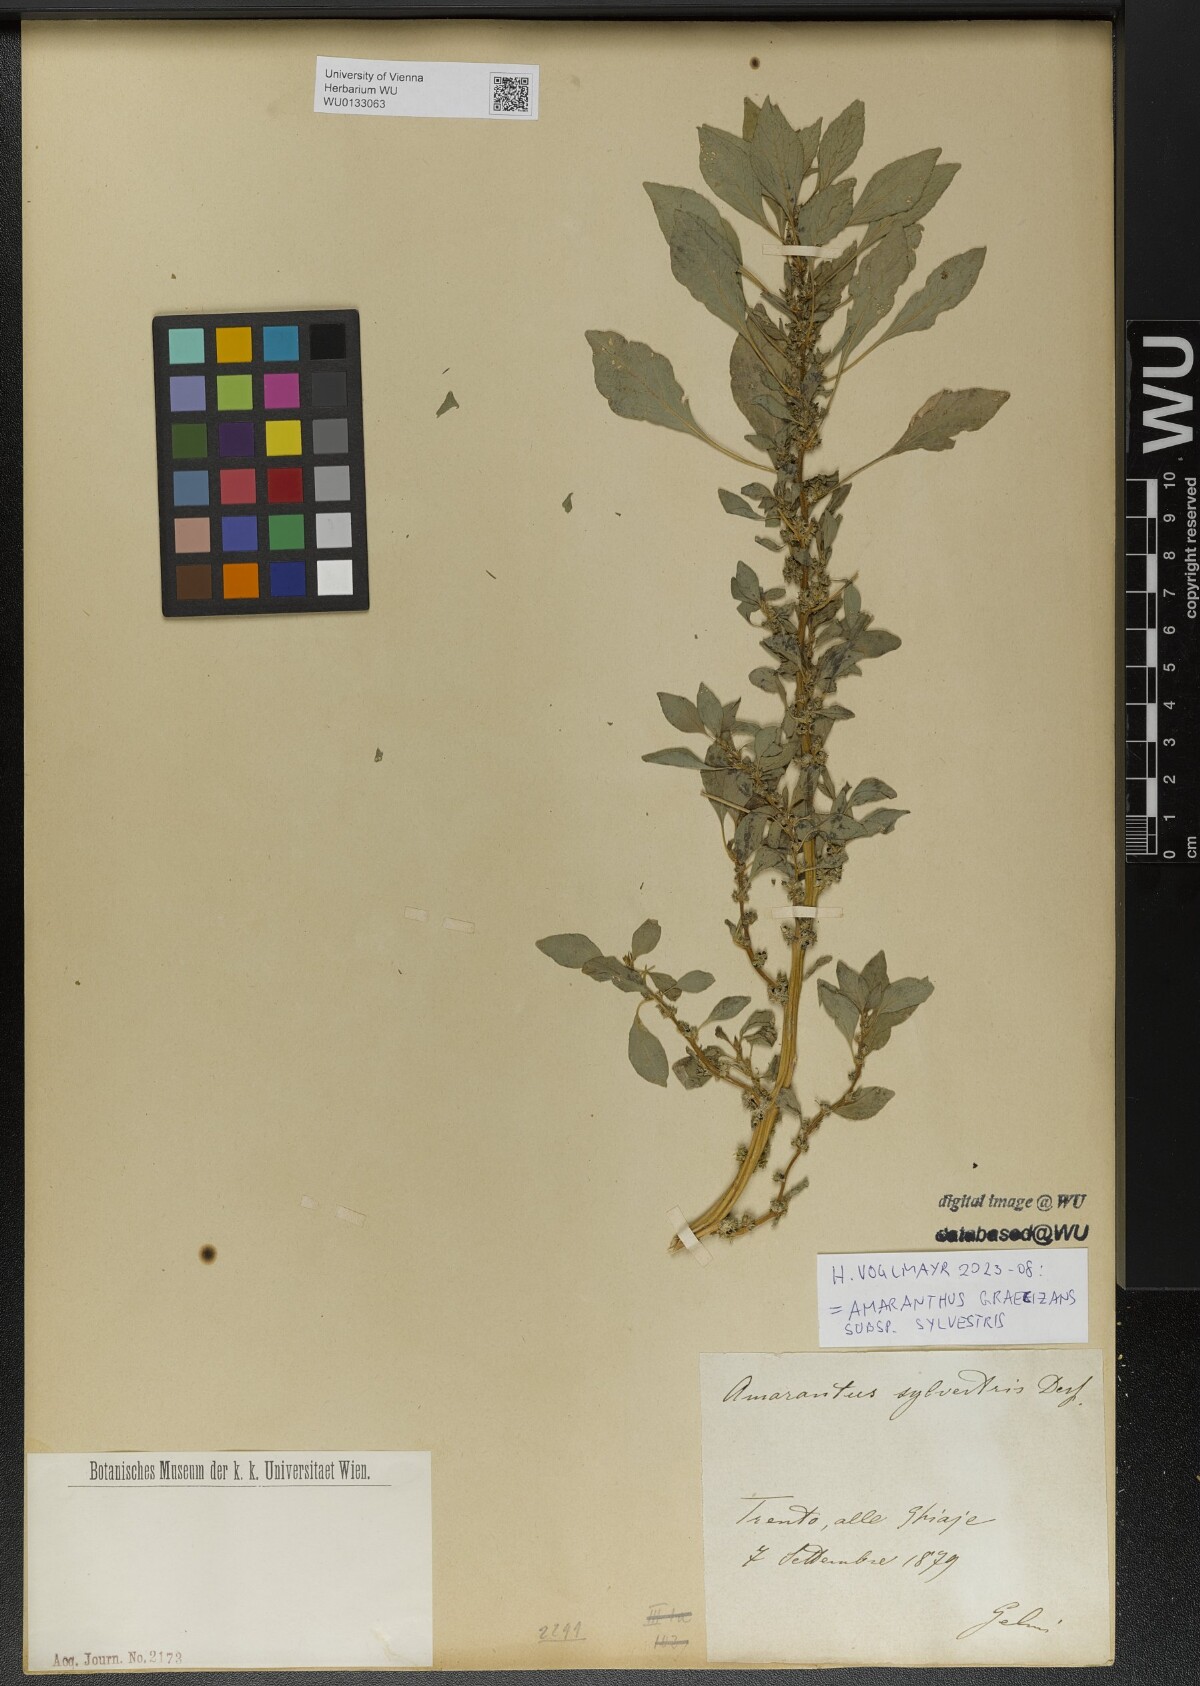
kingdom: Plantae
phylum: Tracheophyta
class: Magnoliopsida
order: Caryophyllales
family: Amaranthaceae
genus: Amaranthus
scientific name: Amaranthus graecizans
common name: Mediterranean amaranth
